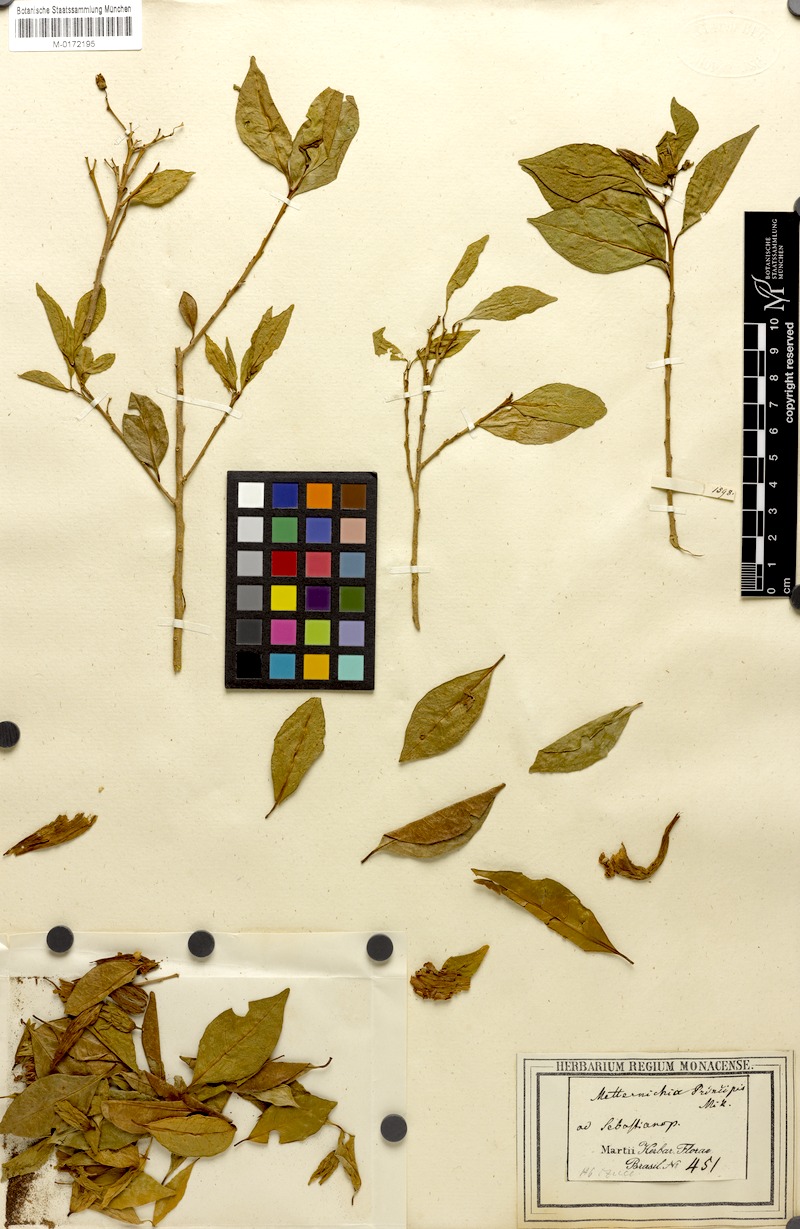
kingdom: Plantae
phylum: Tracheophyta
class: Magnoliopsida
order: Solanales
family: Solanaceae
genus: Metternichia
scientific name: Metternichia princeps
